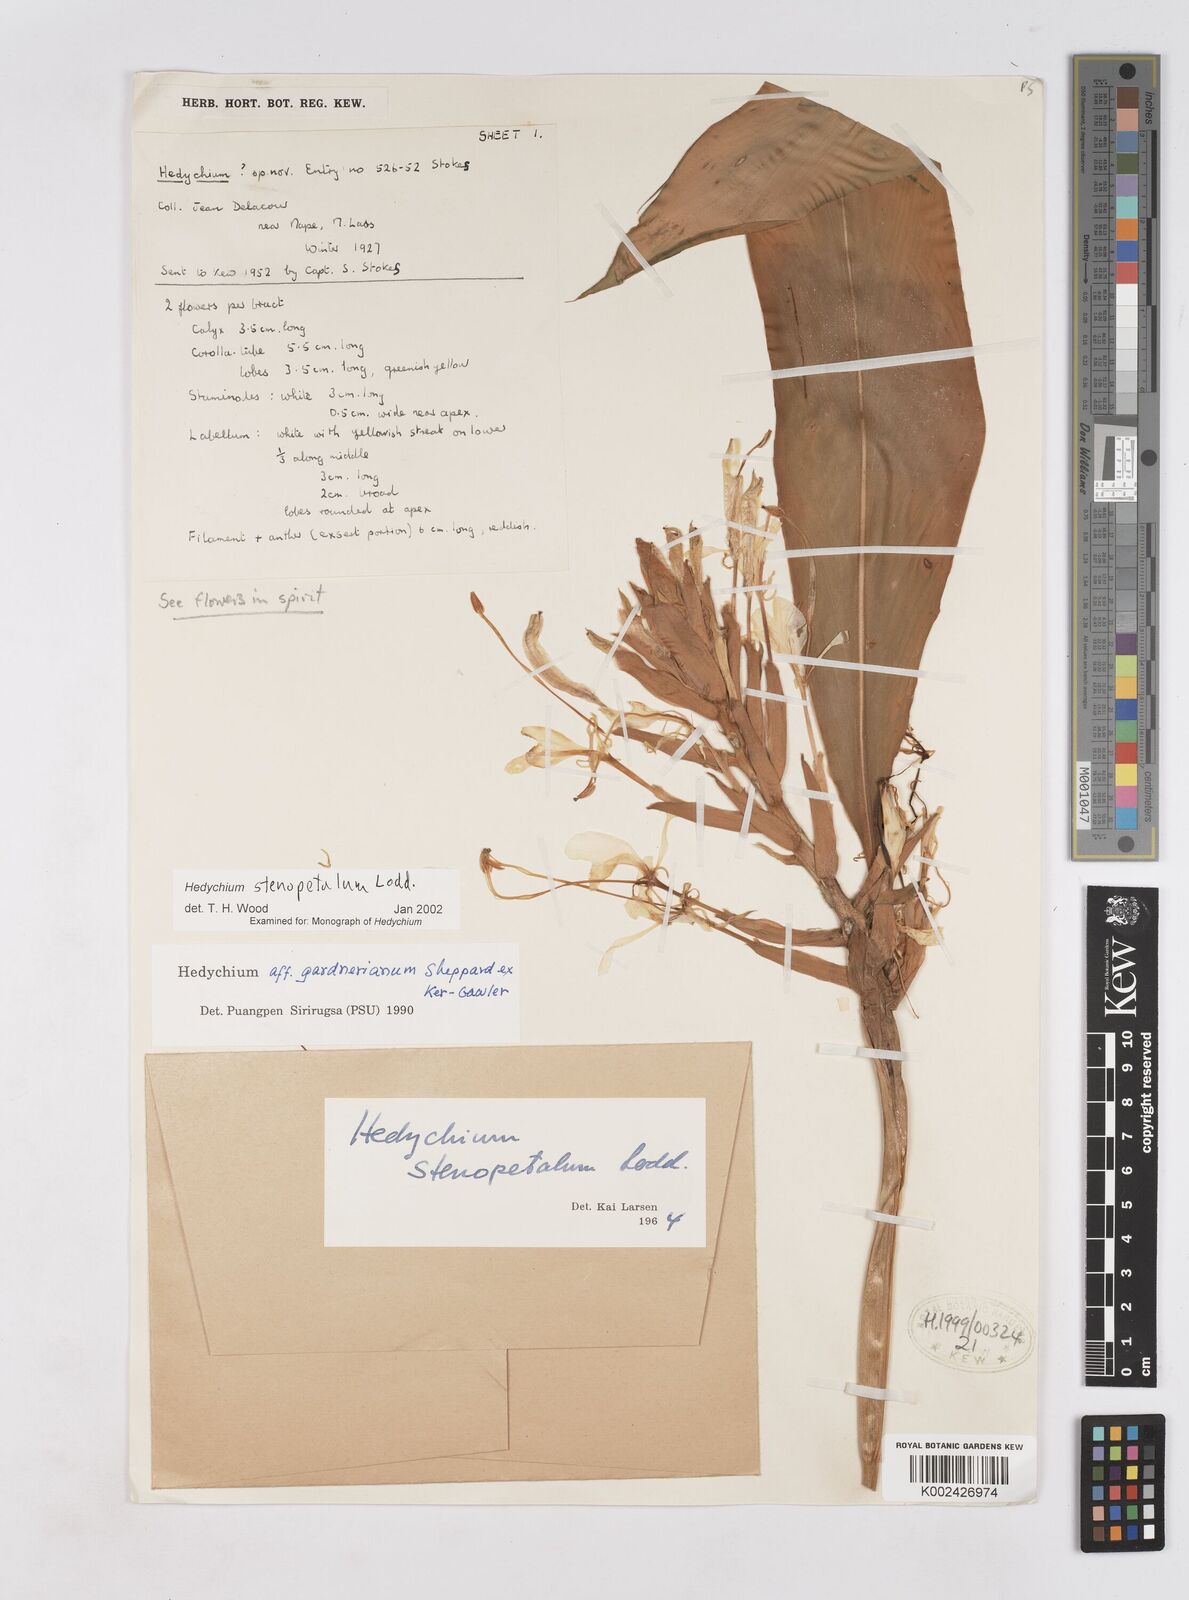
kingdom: Plantae
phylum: Tracheophyta
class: Liliopsida
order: Zingiberales
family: Zingiberaceae
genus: Hedychium
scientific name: Hedychium stenopetalum
